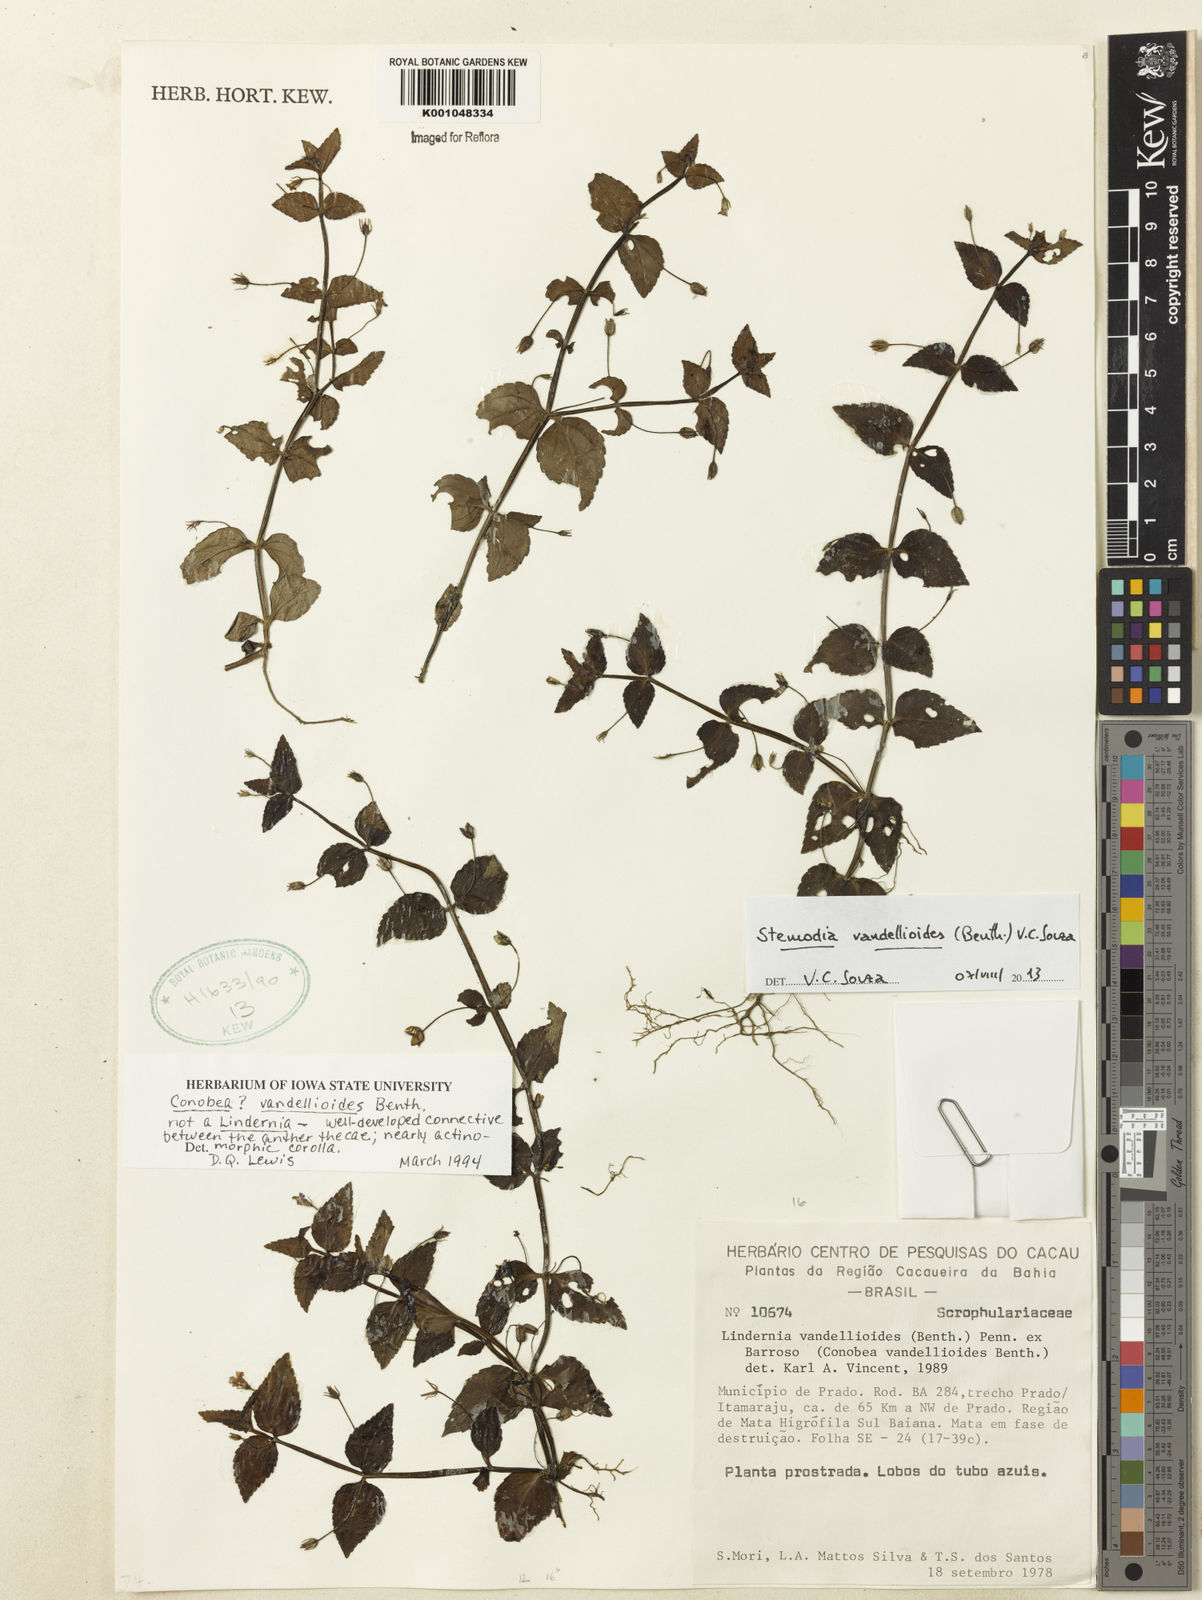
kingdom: Plantae
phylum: Tracheophyta
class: Magnoliopsida
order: Lamiales
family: Plantaginaceae
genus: Darcya
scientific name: Darcya vandellioides
